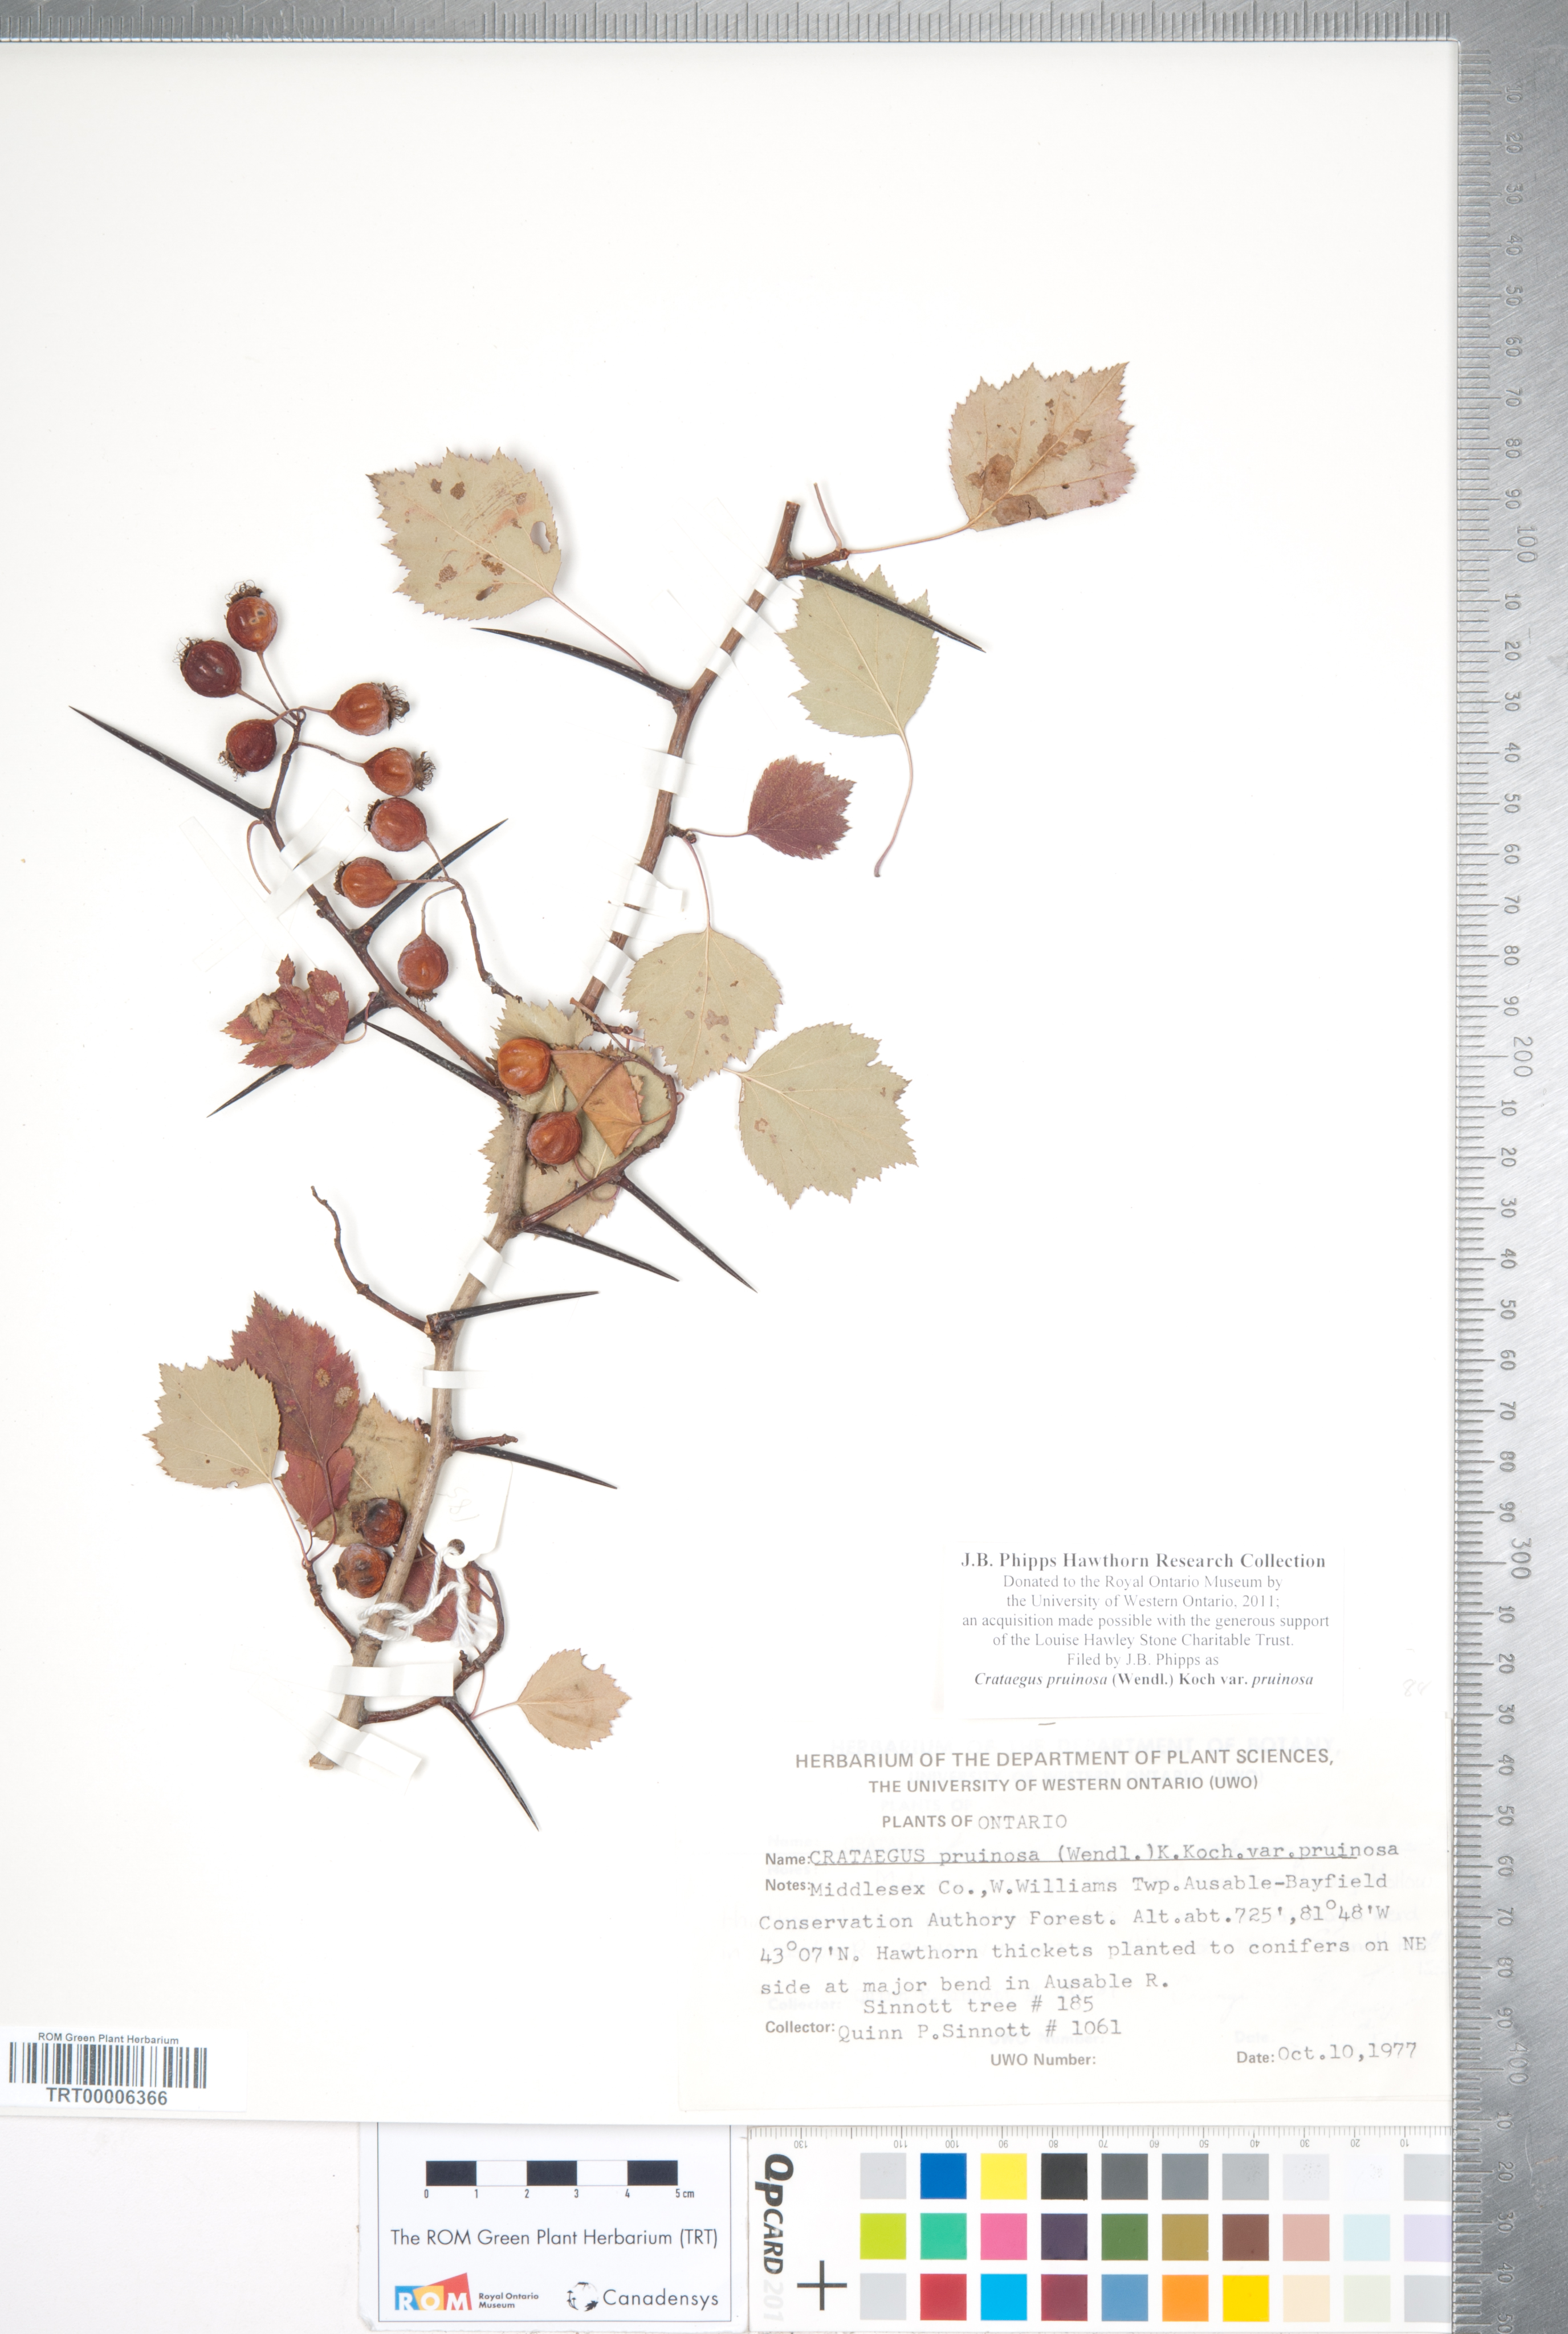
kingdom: Plantae
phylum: Tracheophyta
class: Magnoliopsida
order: Rosales
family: Rosaceae
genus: Crataegus
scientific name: Crataegus pruinosa
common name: Waxy-fruit hawthorn
